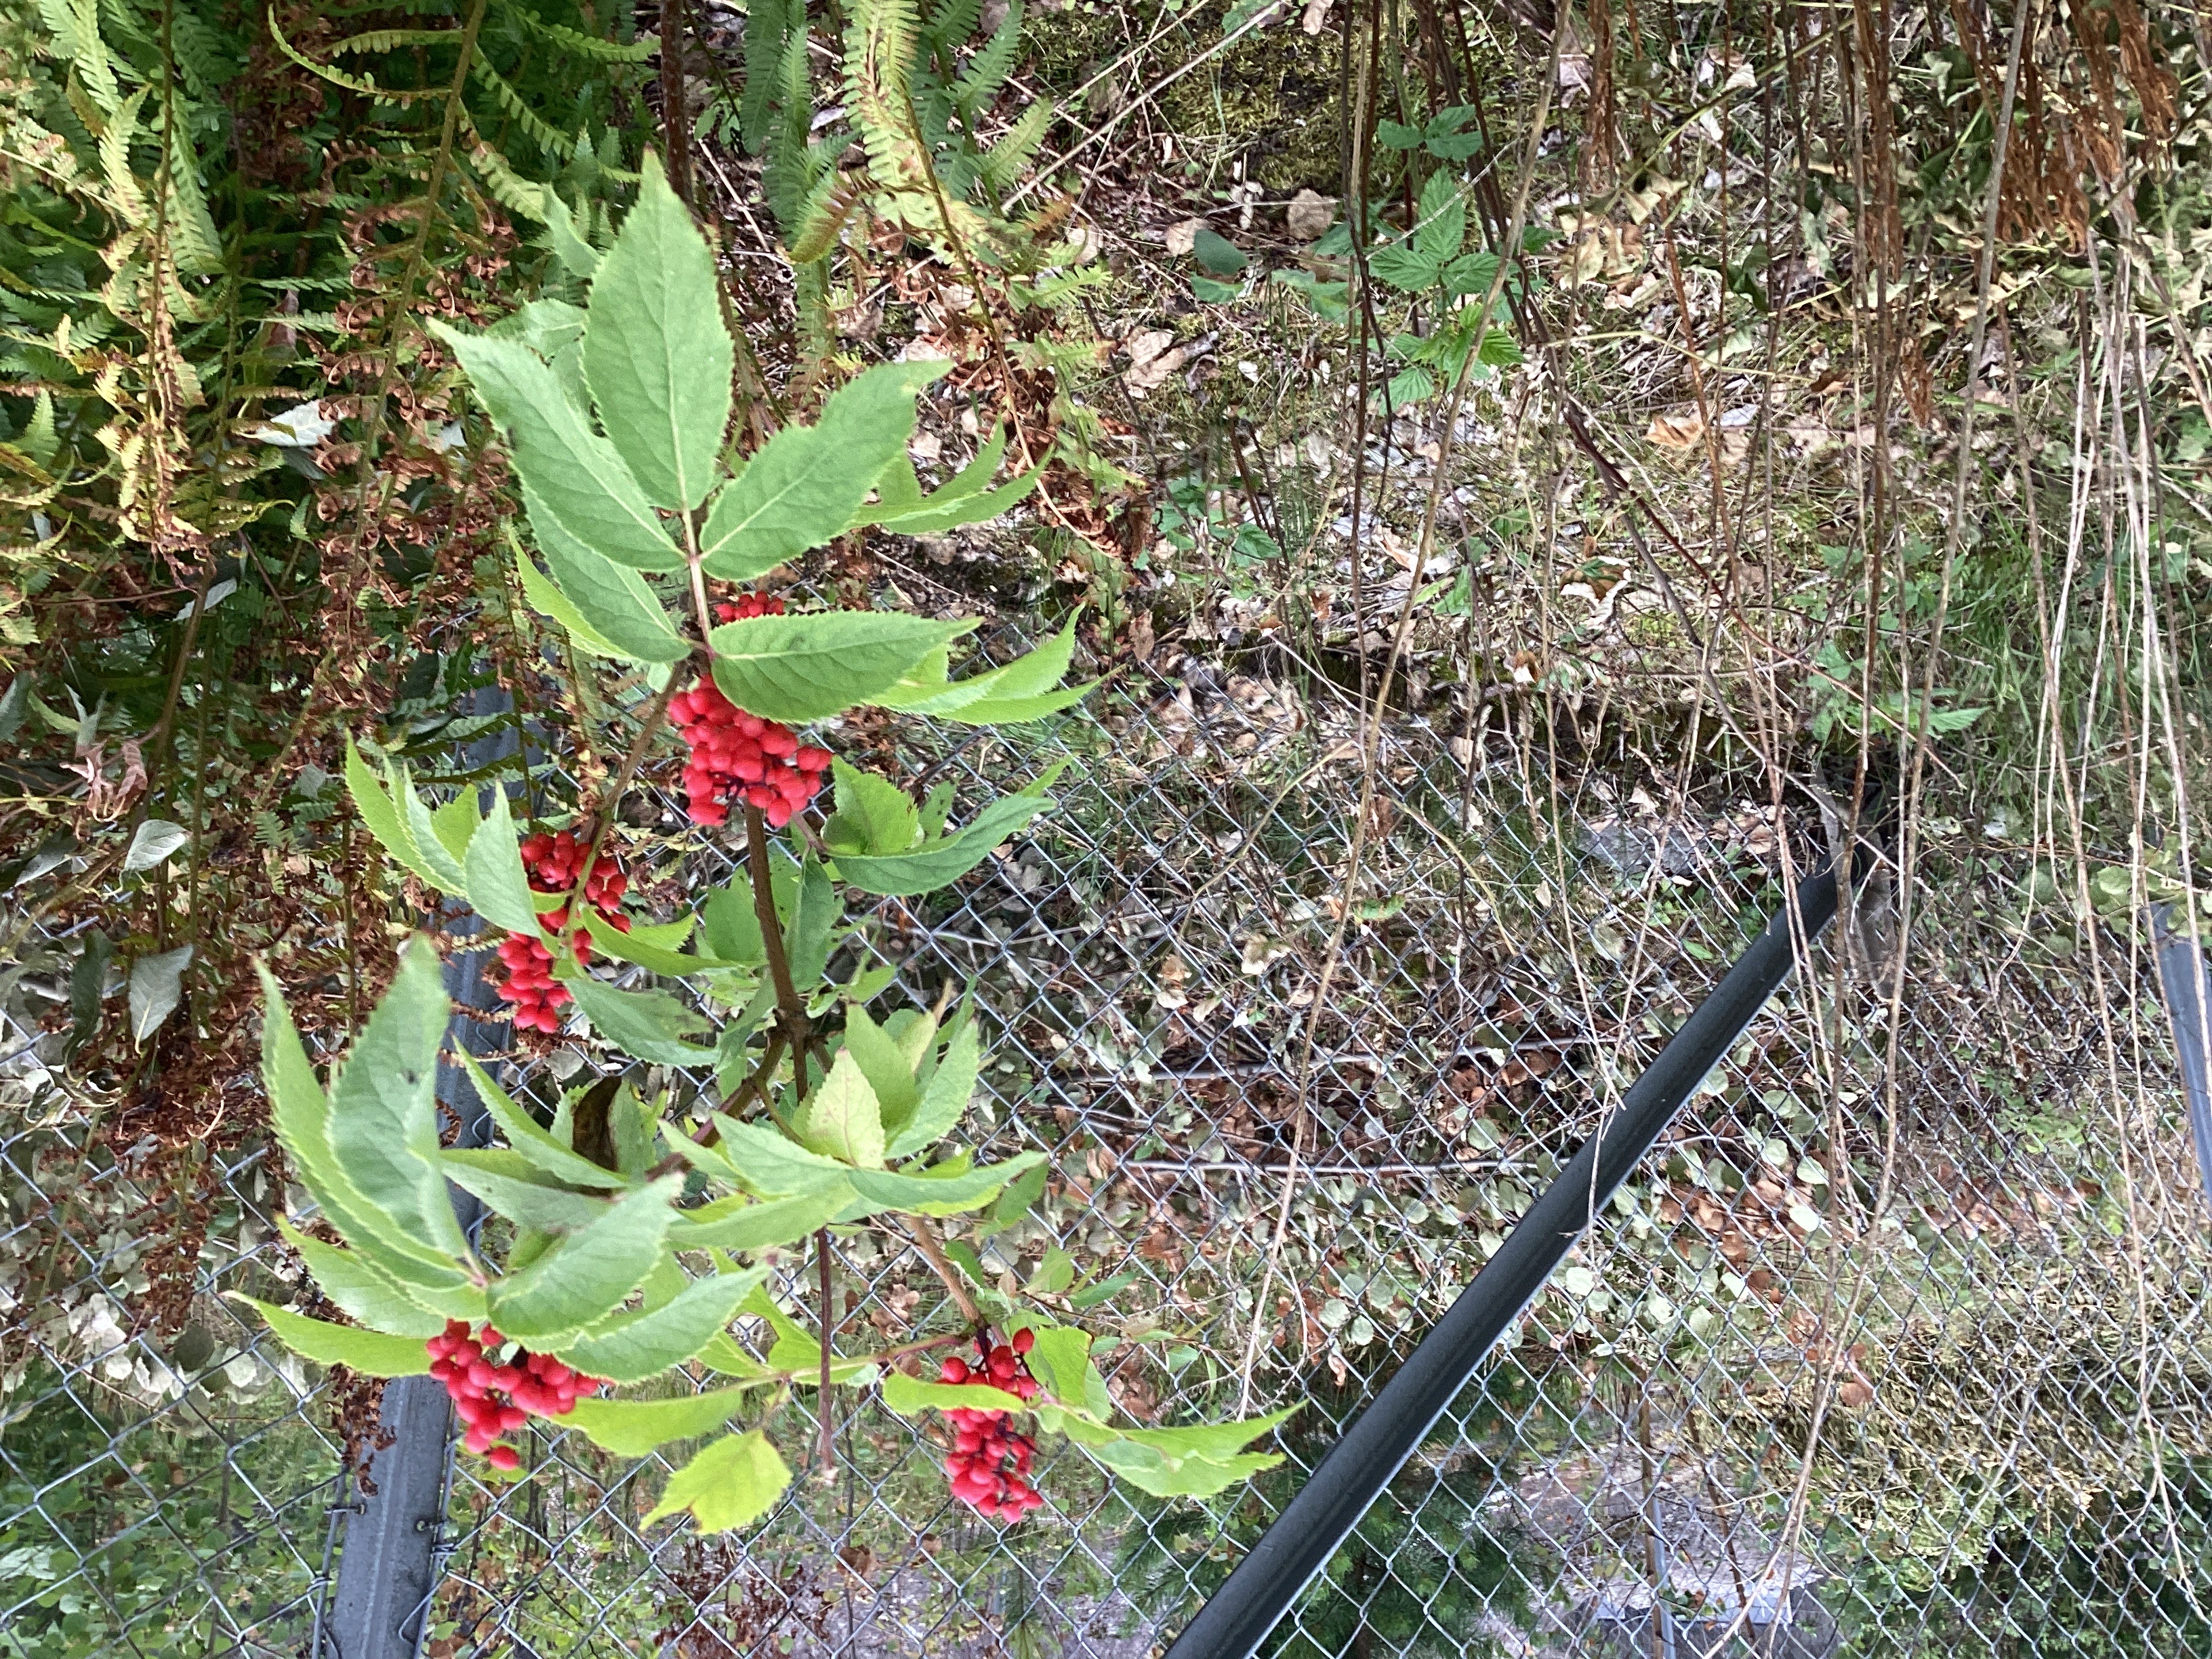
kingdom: Plantae
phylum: Tracheophyta
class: Magnoliopsida
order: Dipsacales
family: Viburnaceae
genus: Sambucus
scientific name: Sambucus racemosa
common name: rødhyll
